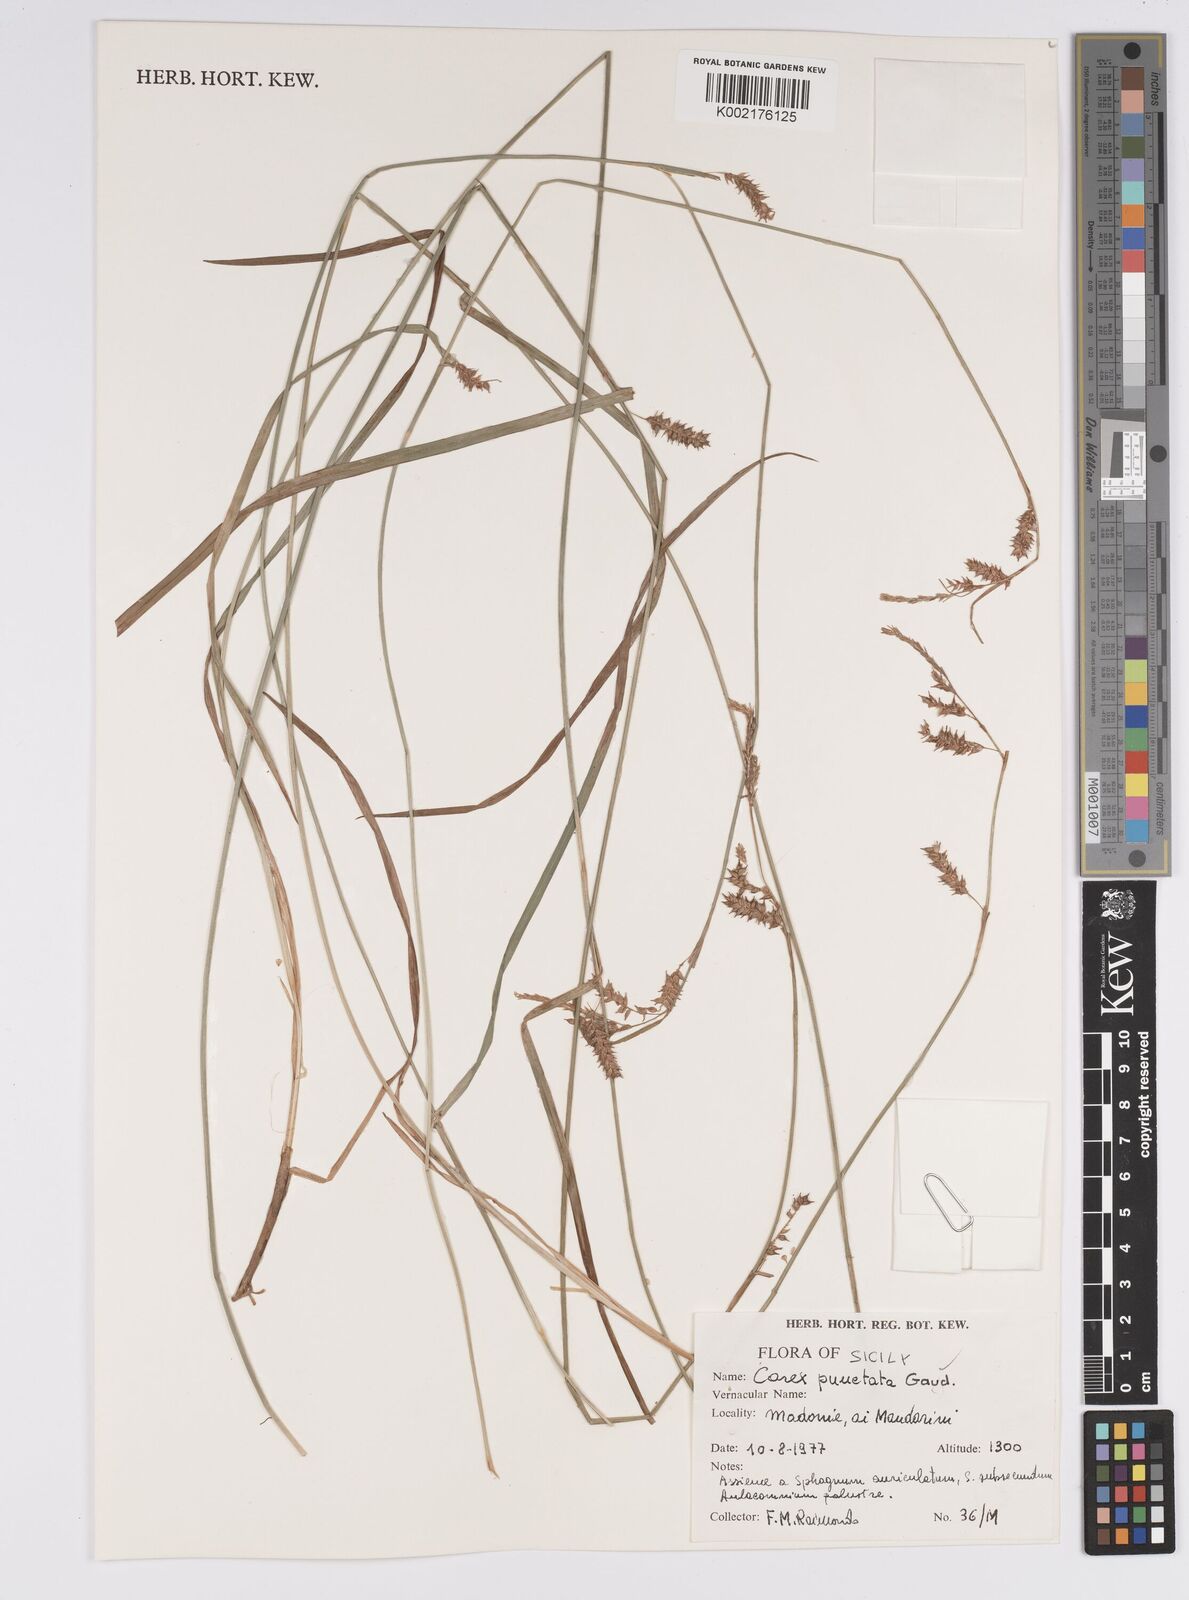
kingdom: Plantae
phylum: Tracheophyta
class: Liliopsida
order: Poales
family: Cyperaceae
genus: Carex
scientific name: Carex punctata
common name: Dotted sedge
